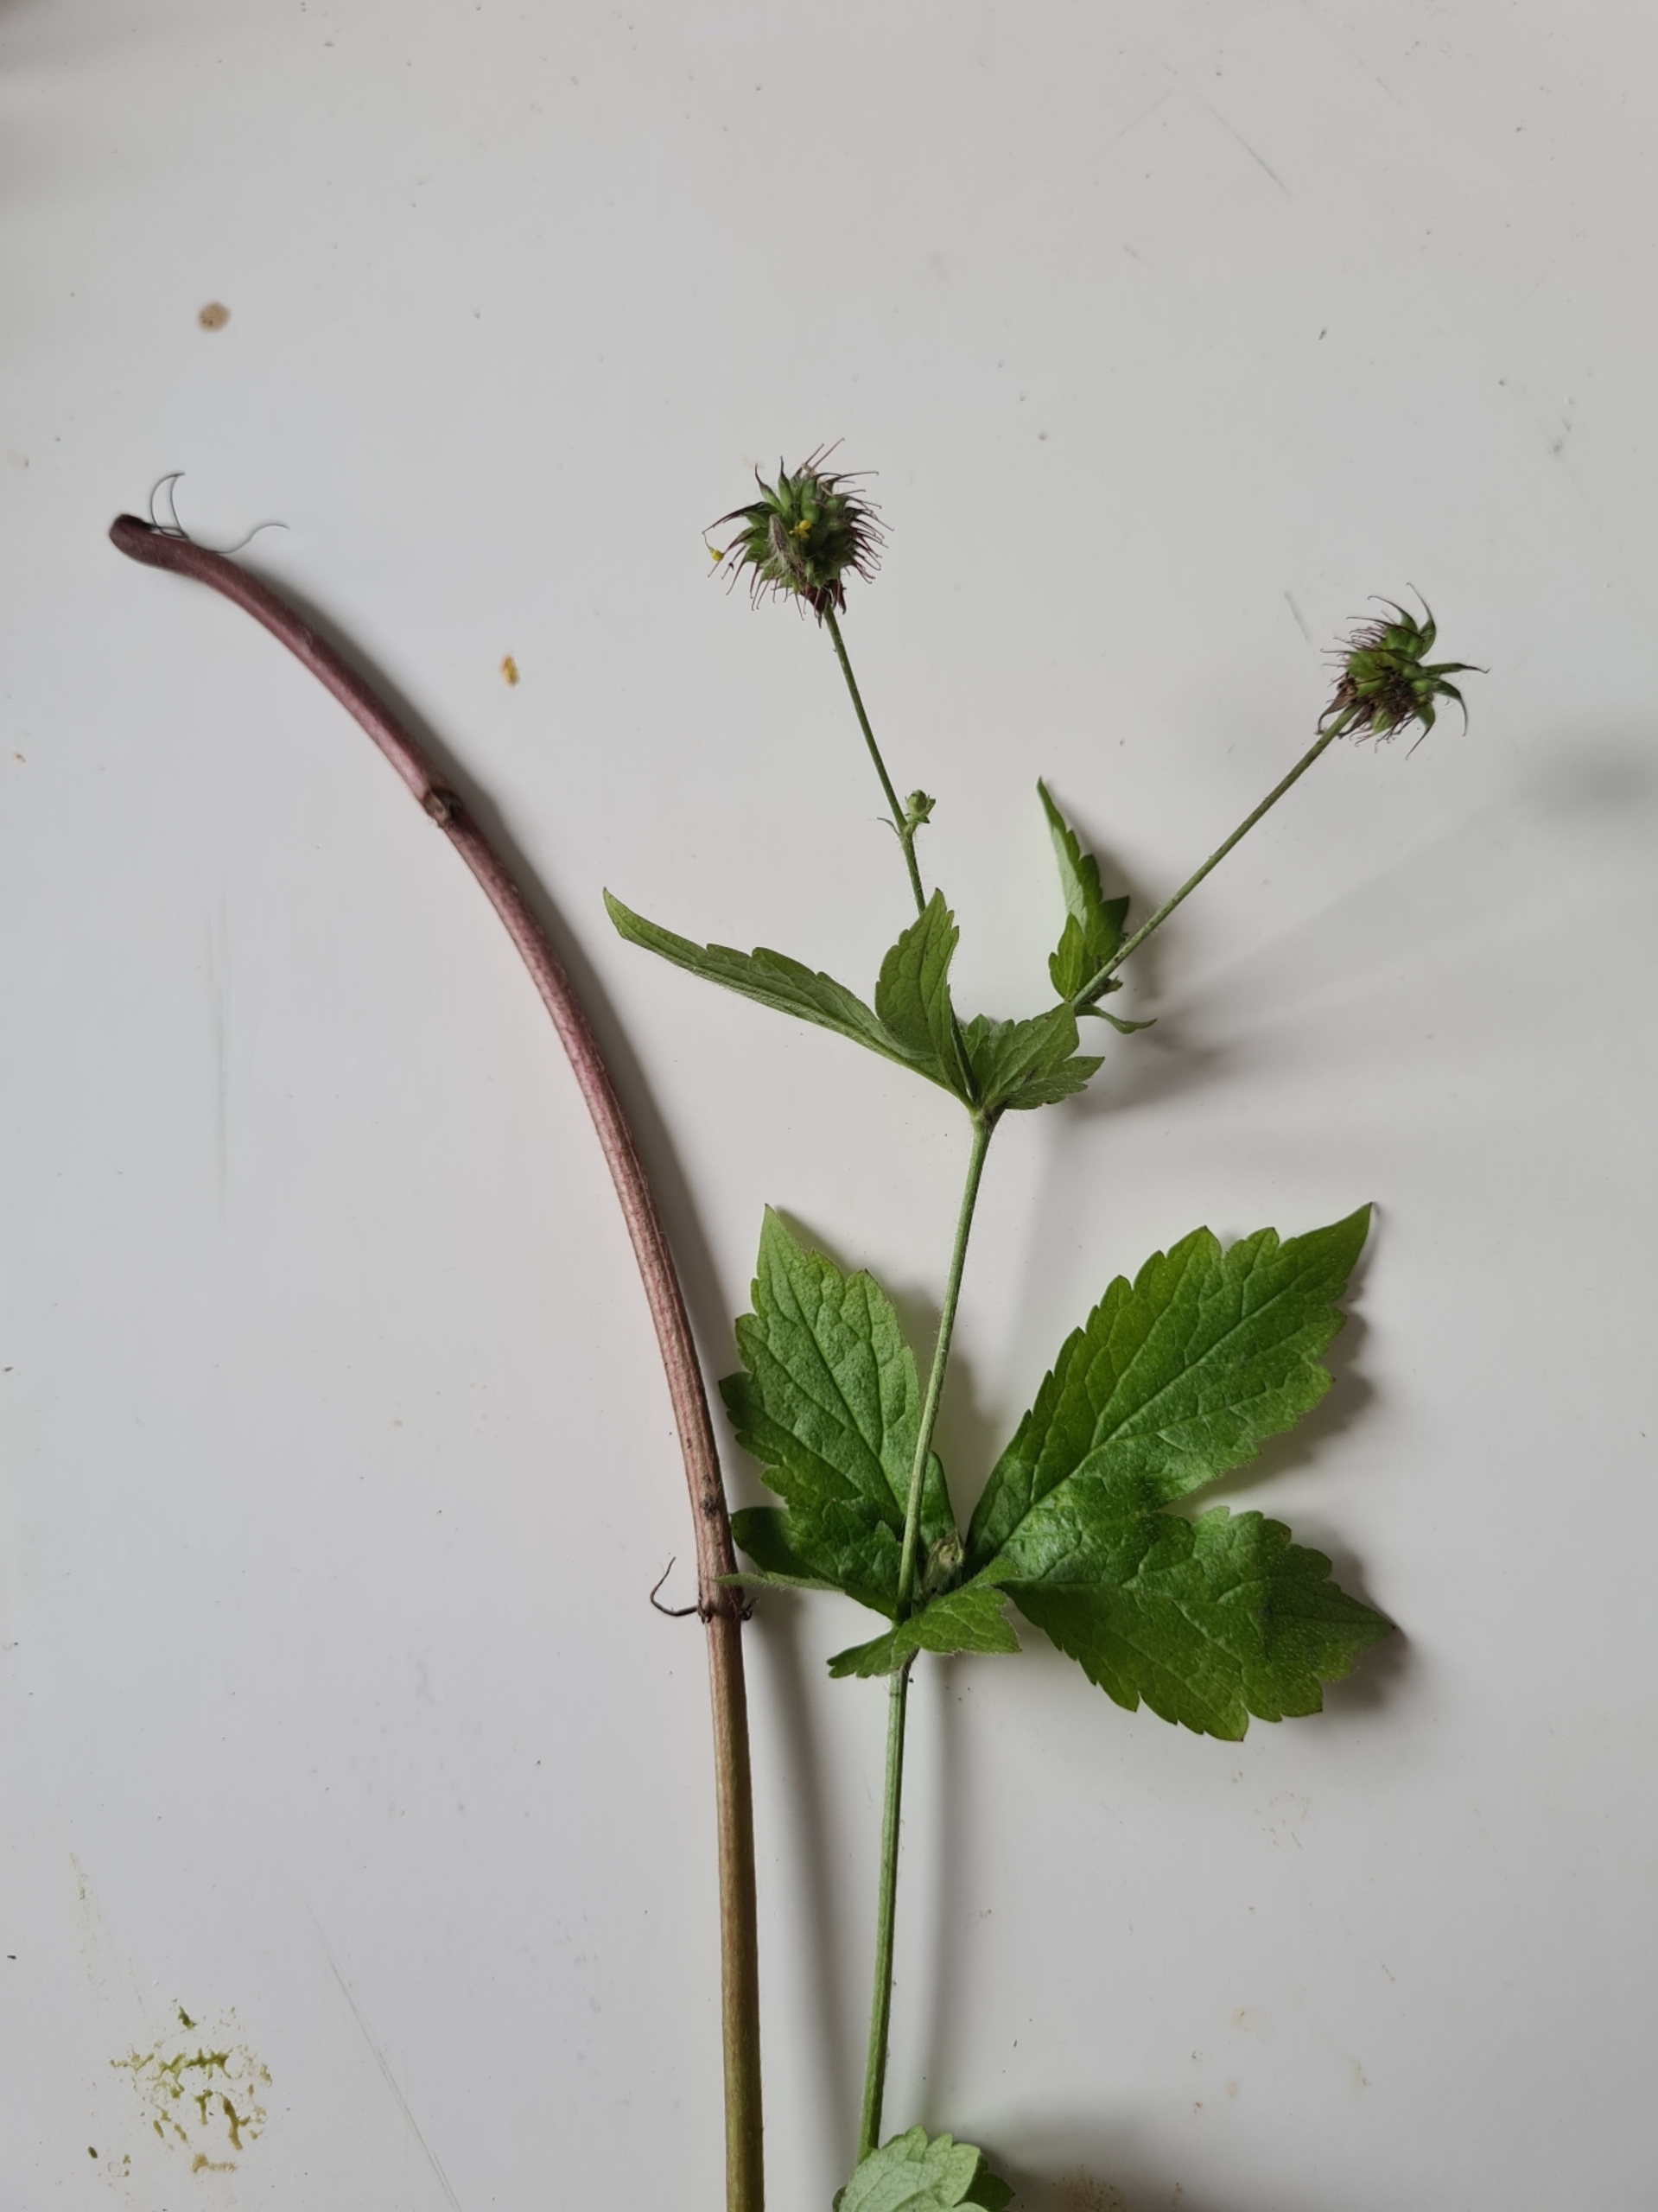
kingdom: Plantae
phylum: Tracheophyta
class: Magnoliopsida
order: Rosales
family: Rosaceae
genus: Geum
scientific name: Geum urbanum
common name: Feber-nellikerod
